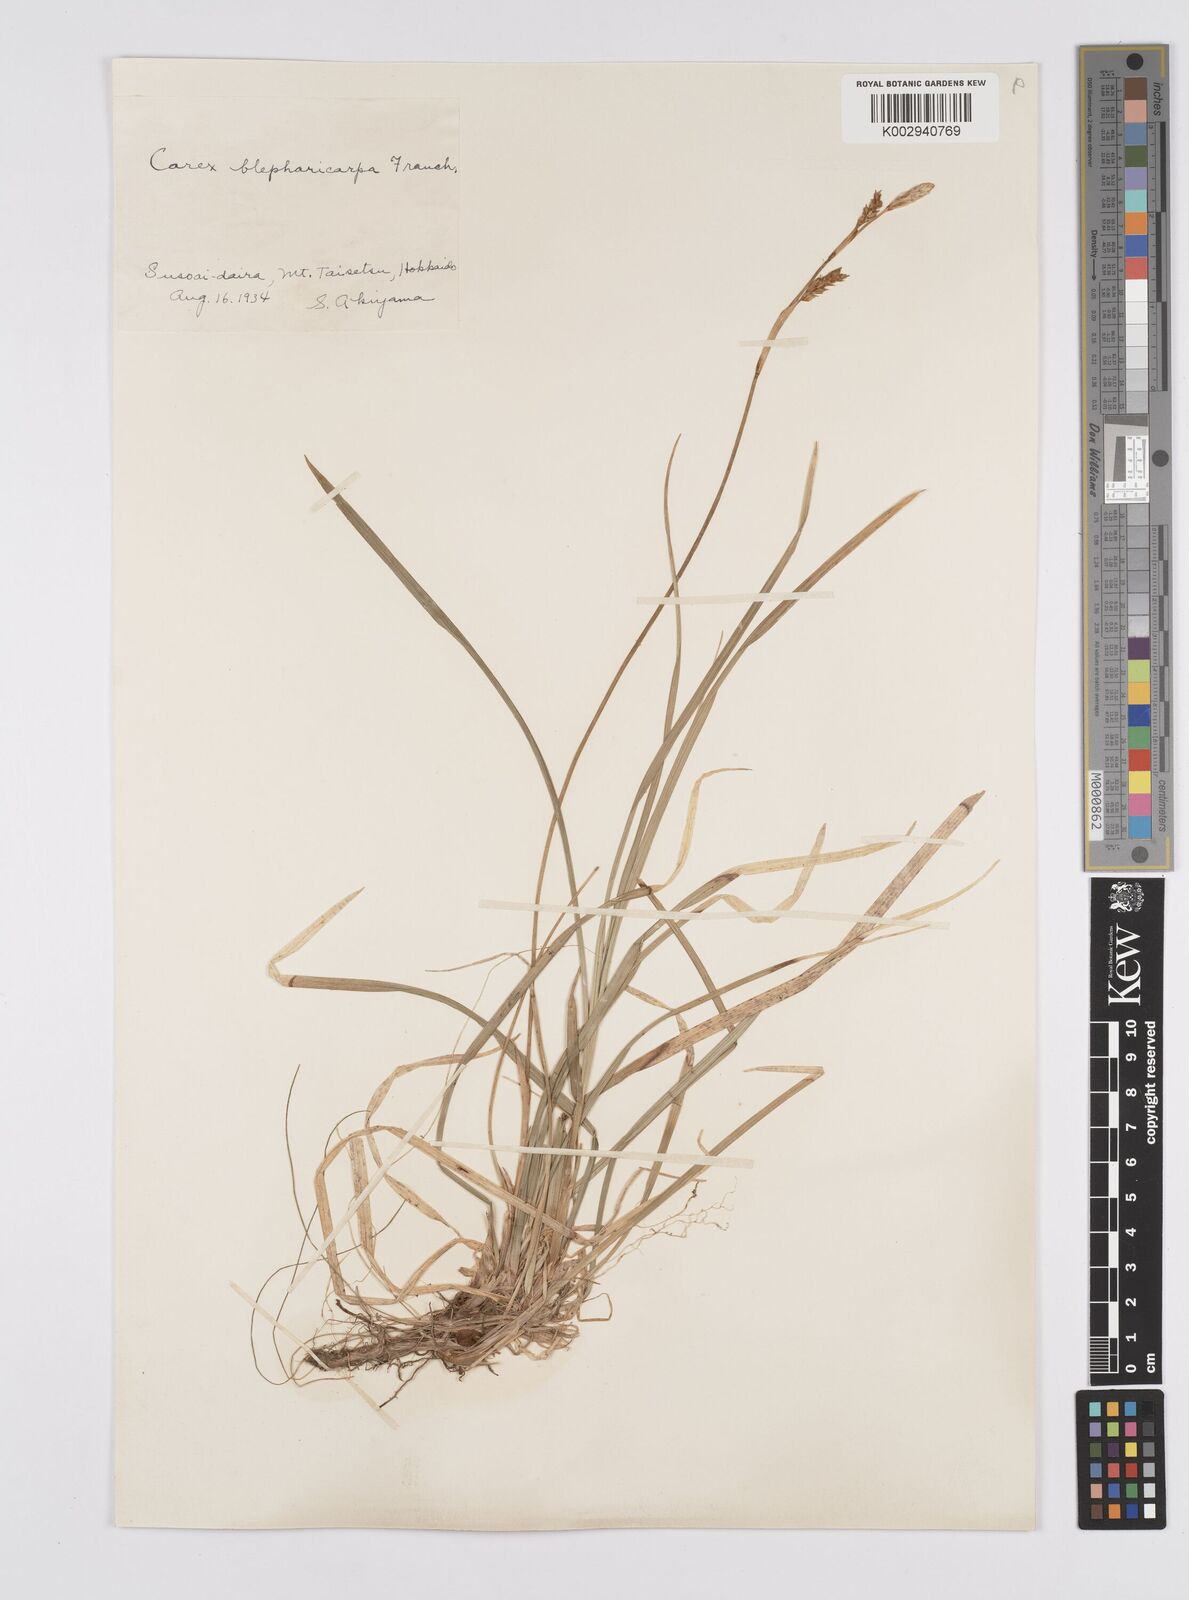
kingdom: Plantae
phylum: Tracheophyta
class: Liliopsida
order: Poales
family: Cyperaceae
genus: Carex
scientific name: Carex blepharicarpa
